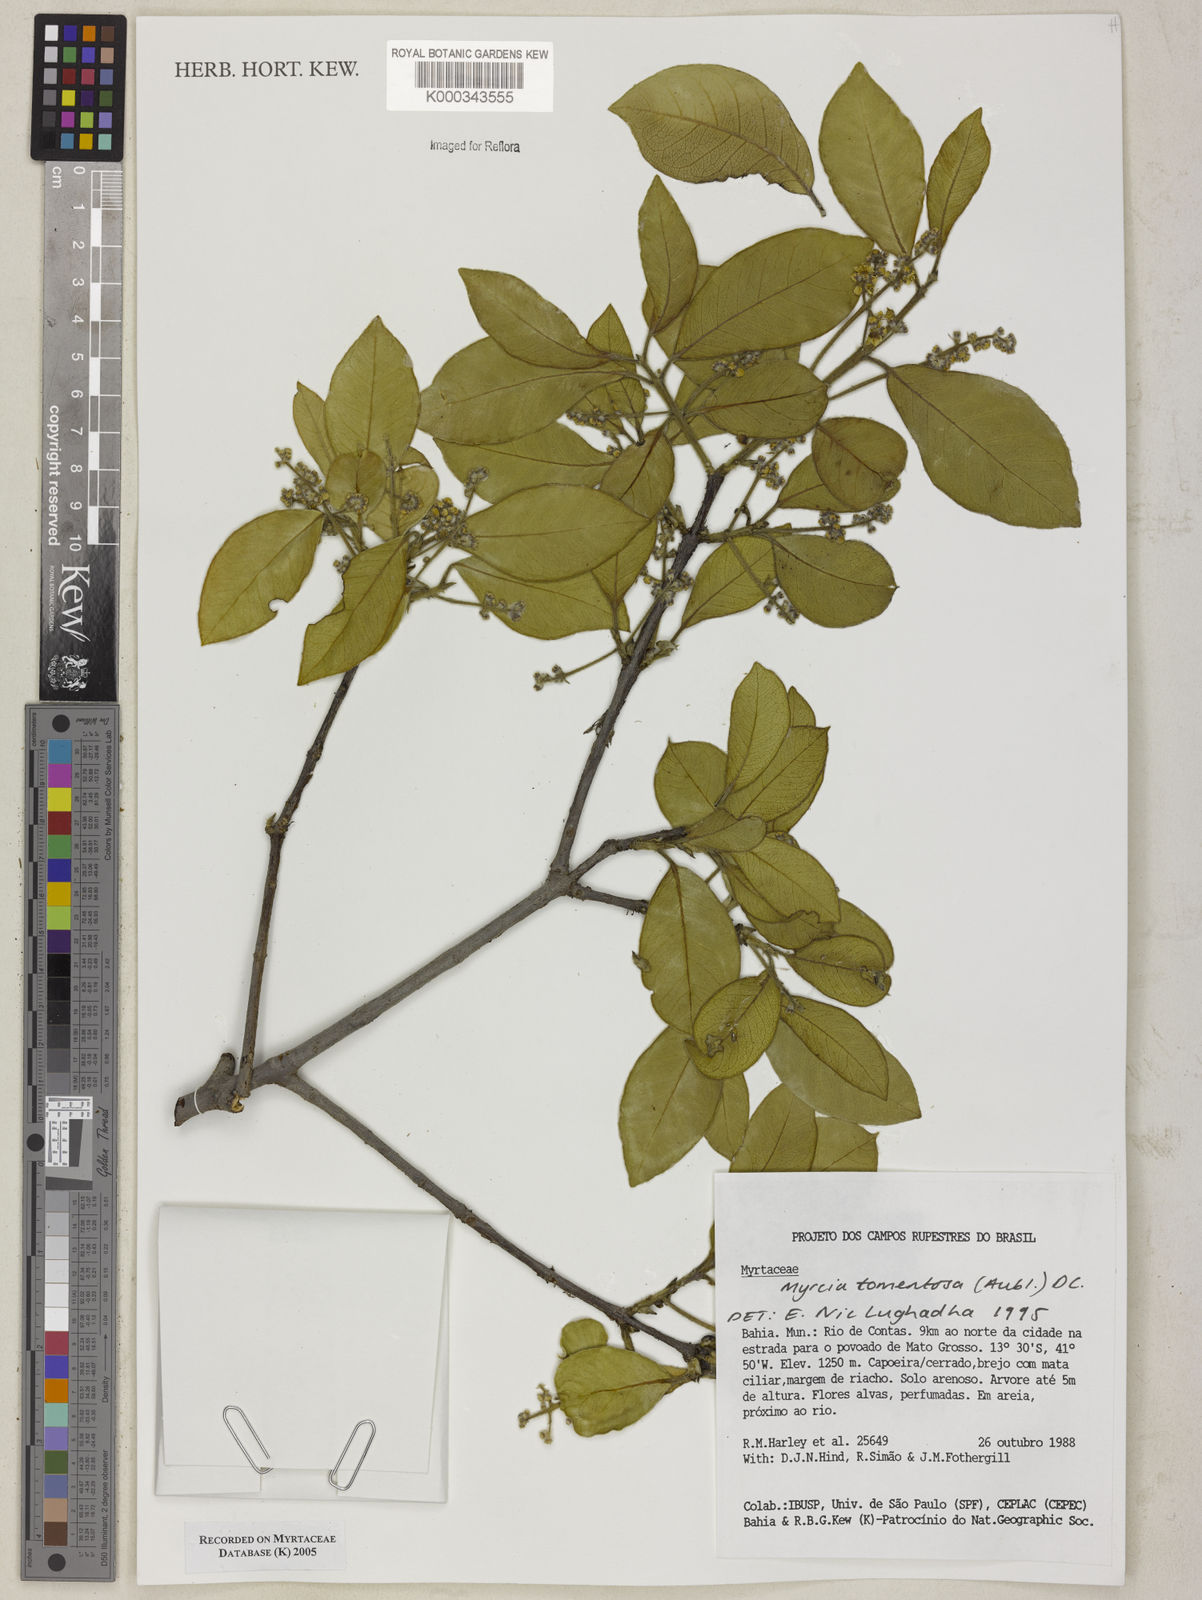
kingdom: Plantae
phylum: Tracheophyta
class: Magnoliopsida
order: Myrtales
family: Myrtaceae
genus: Myrcia
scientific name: Myrcia tomentosa
